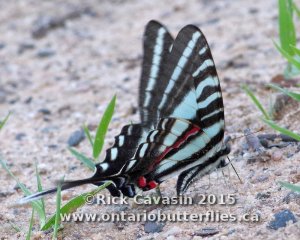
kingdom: Animalia
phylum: Arthropoda
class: Insecta
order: Lepidoptera
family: Papilionidae
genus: Protographium
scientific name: Protographium marcellus
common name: Zebra Swallowtail
